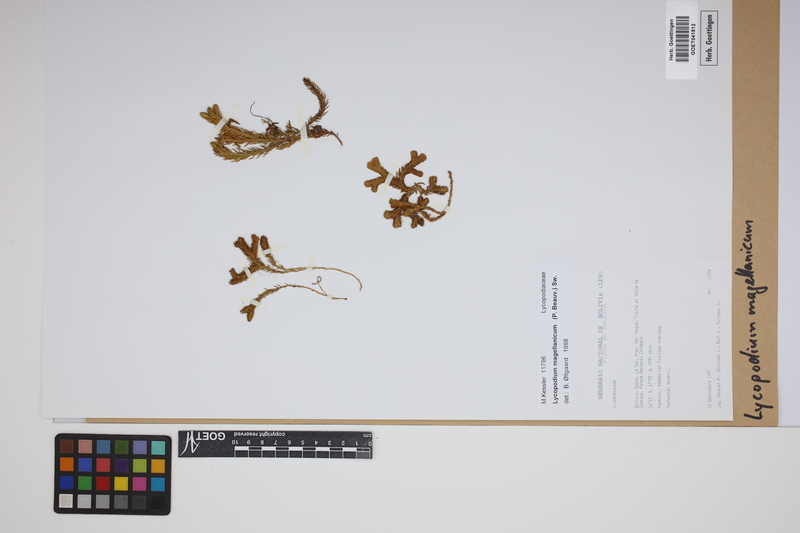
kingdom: Plantae
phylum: Tracheophyta
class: Lycopodiopsida
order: Lycopodiales
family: Lycopodiaceae
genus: Austrolycopodium
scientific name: Austrolycopodium magellanicum
